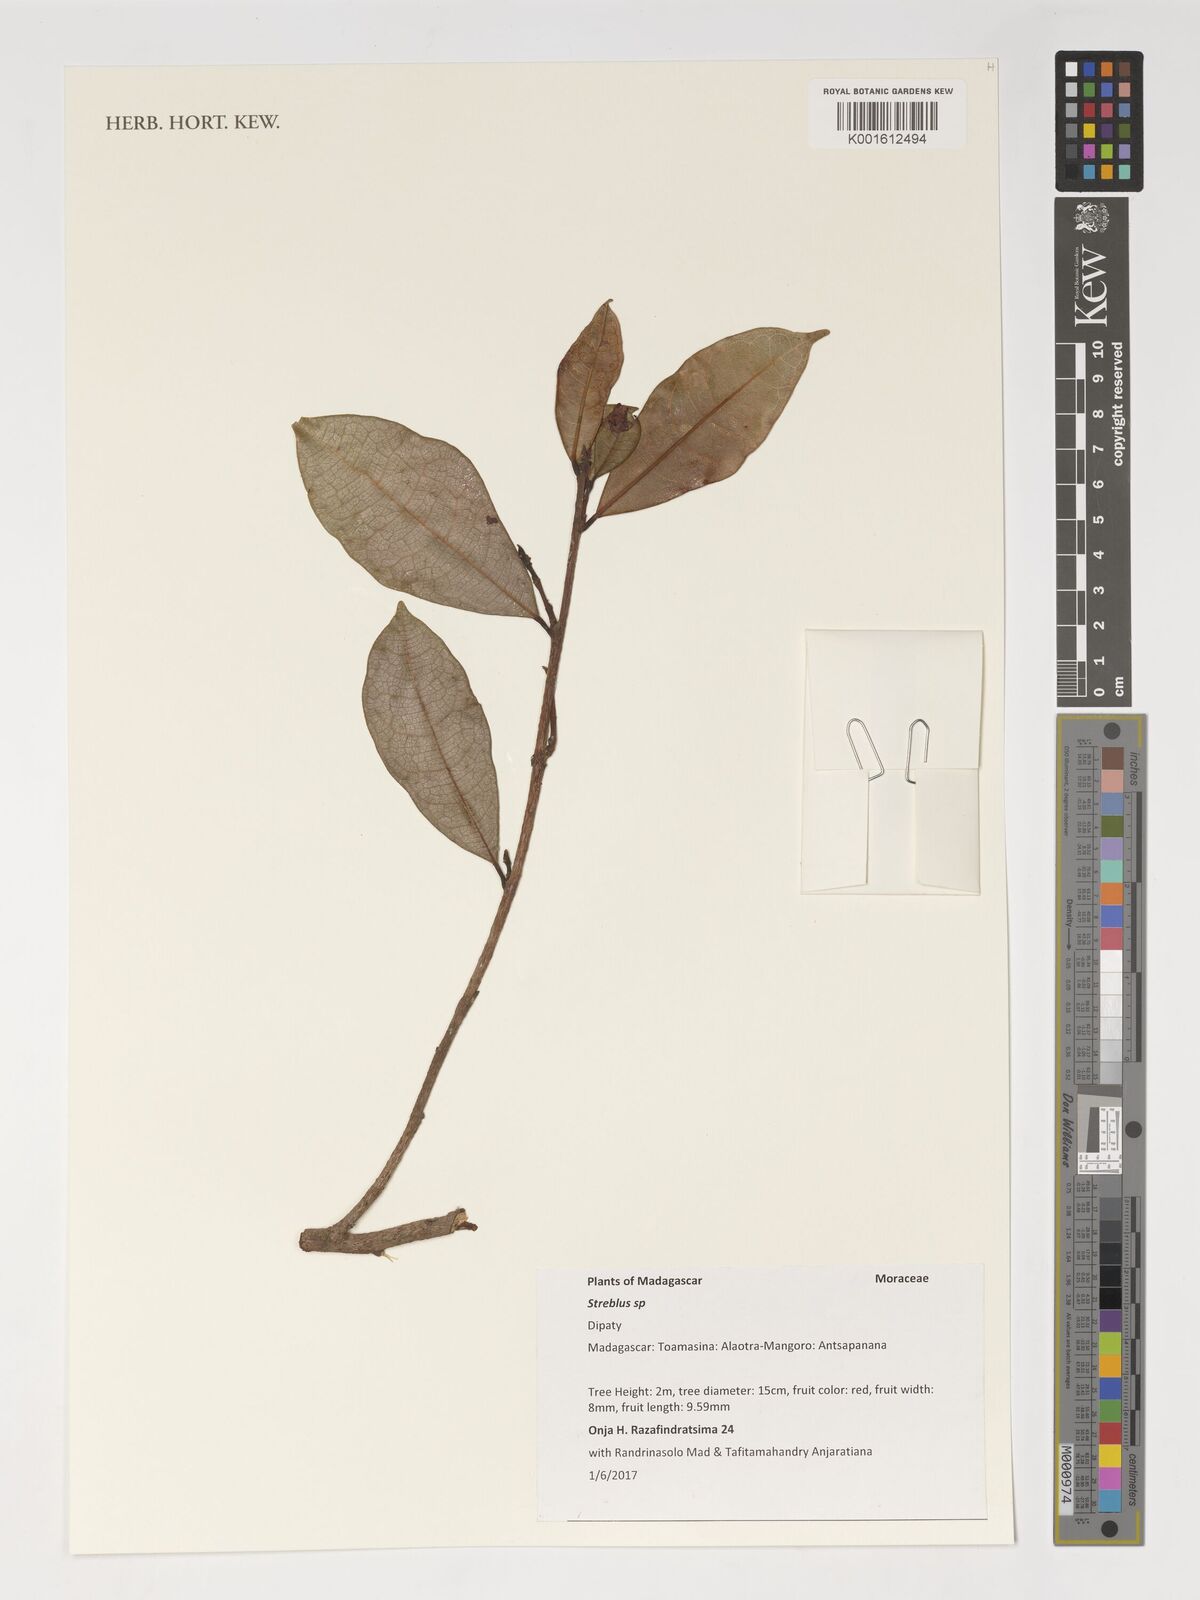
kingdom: Plantae
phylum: Tracheophyta
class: Magnoliopsida
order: Rosales
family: Moraceae
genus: Streblus
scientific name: Streblus
